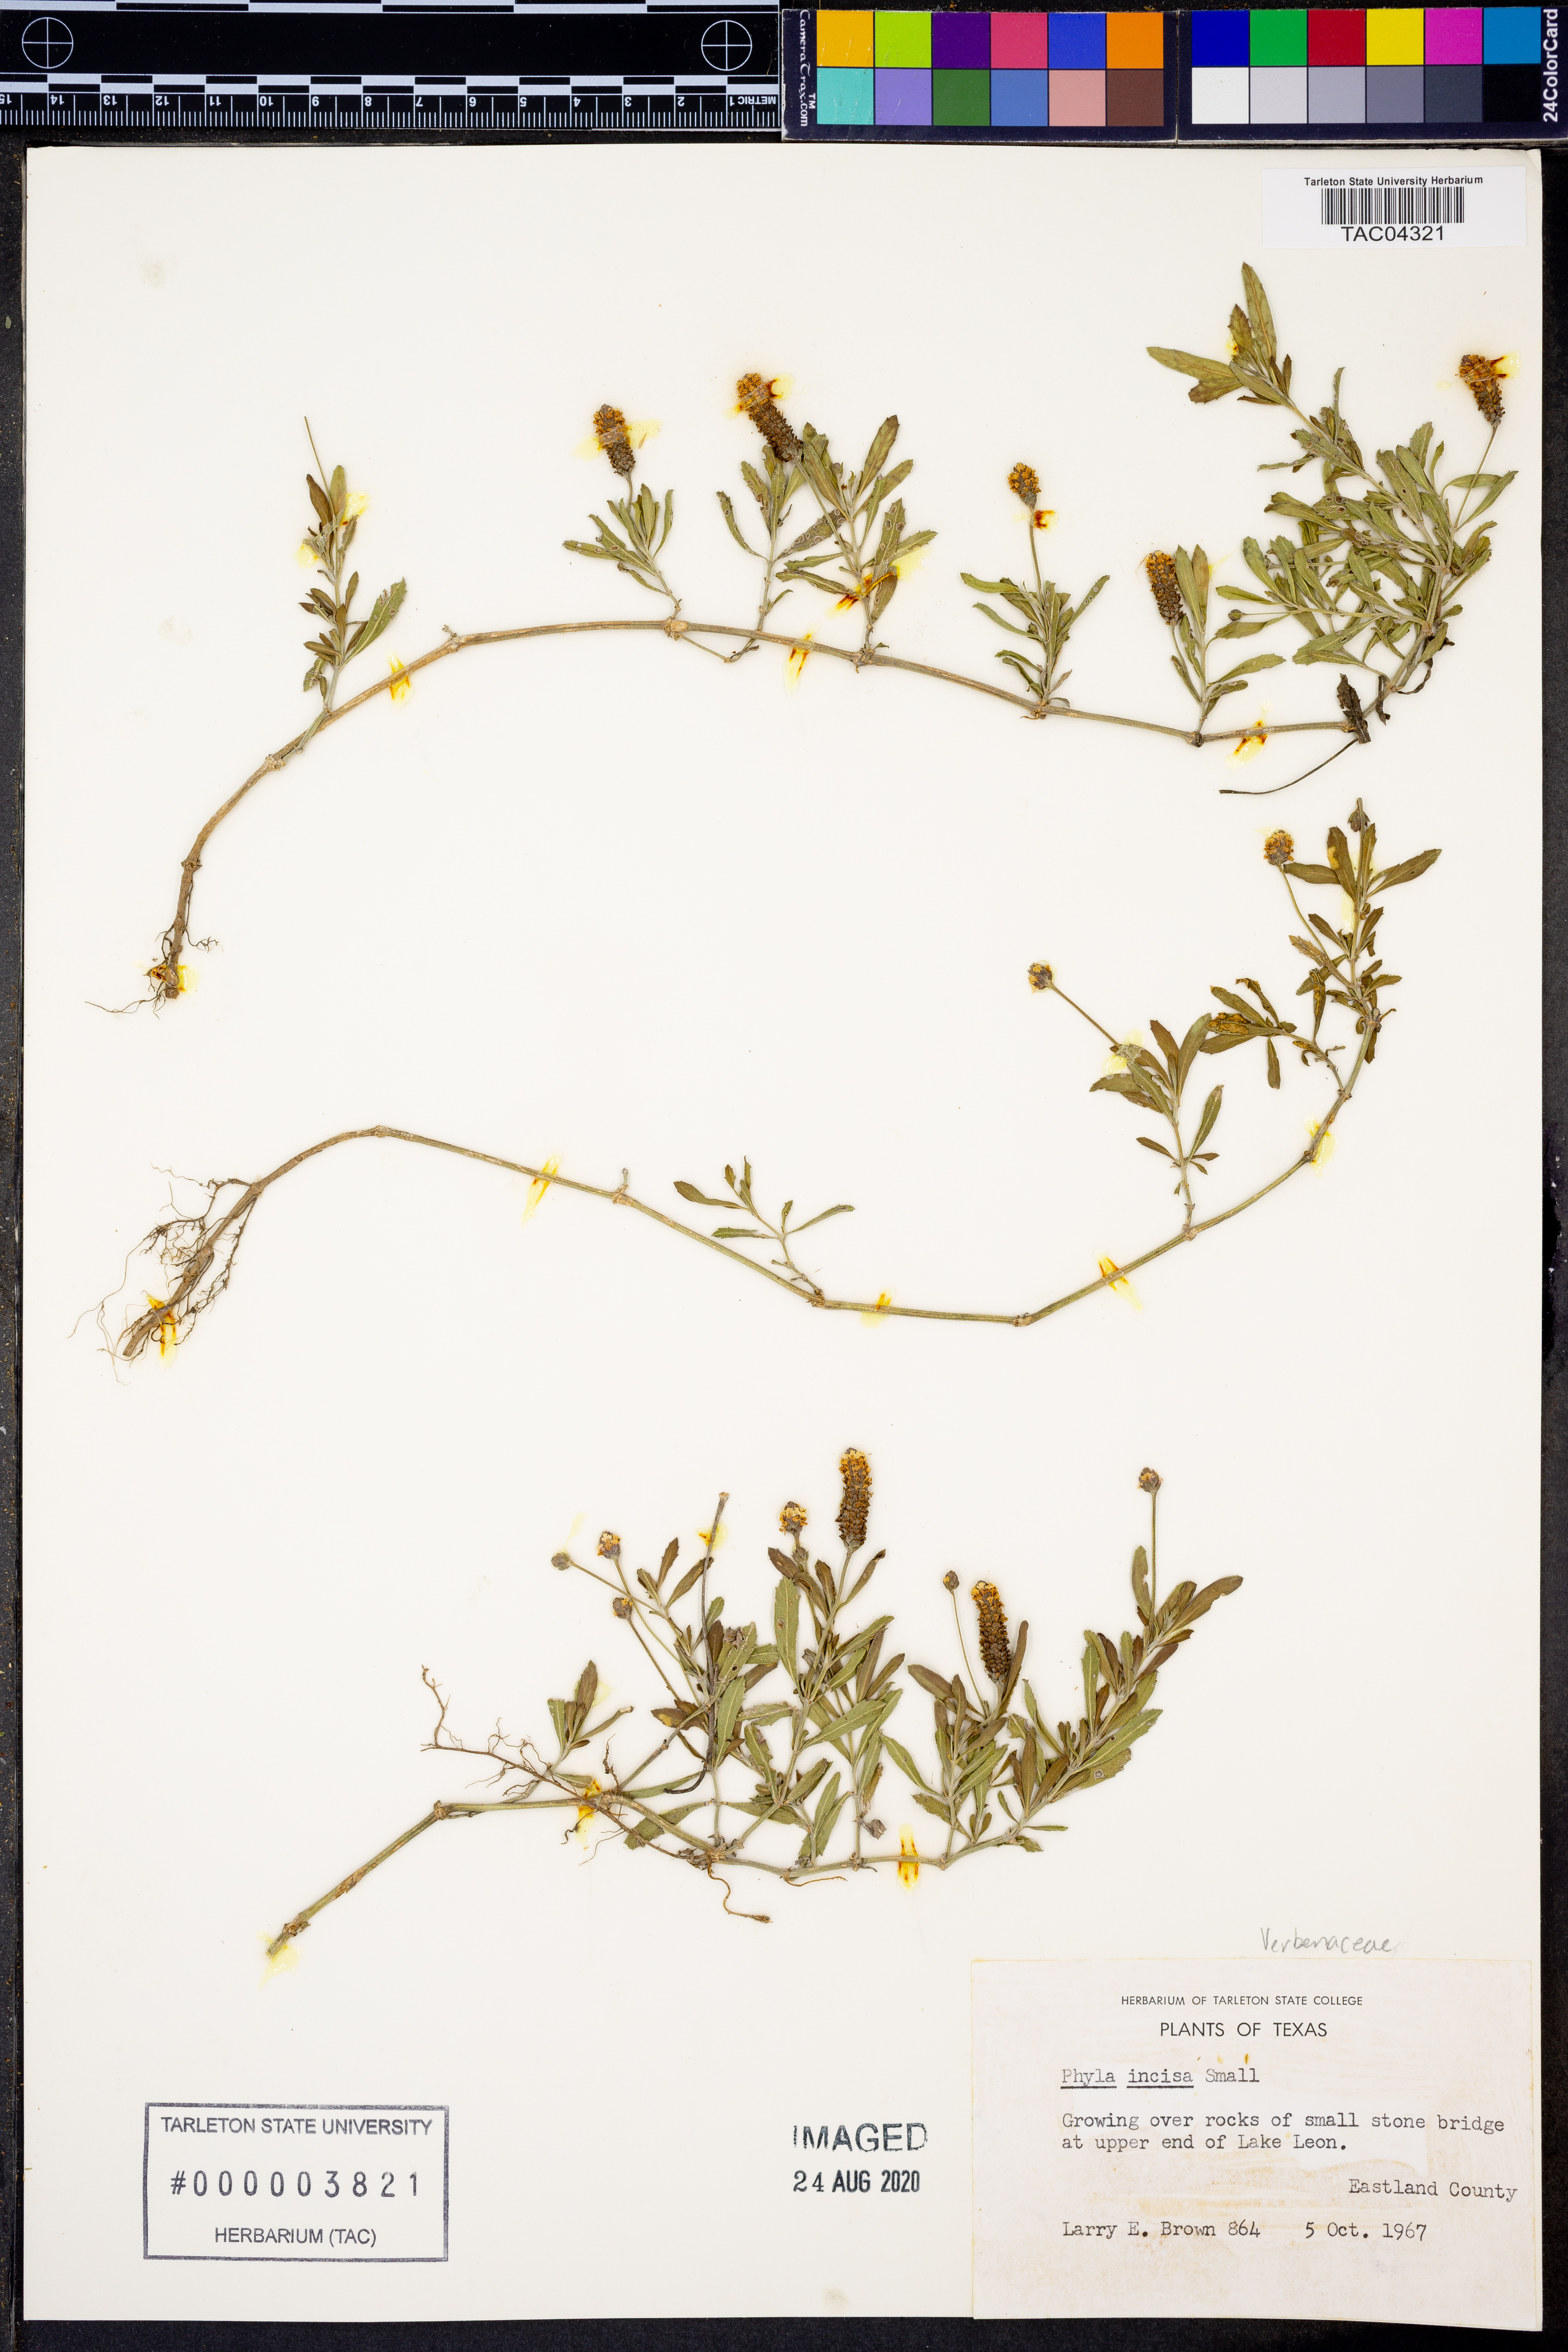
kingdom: Plantae
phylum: Tracheophyta
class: Magnoliopsida
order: Lamiales
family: Verbenaceae
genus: Phyla
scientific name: Phyla nodiflora
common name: Frogfruit
